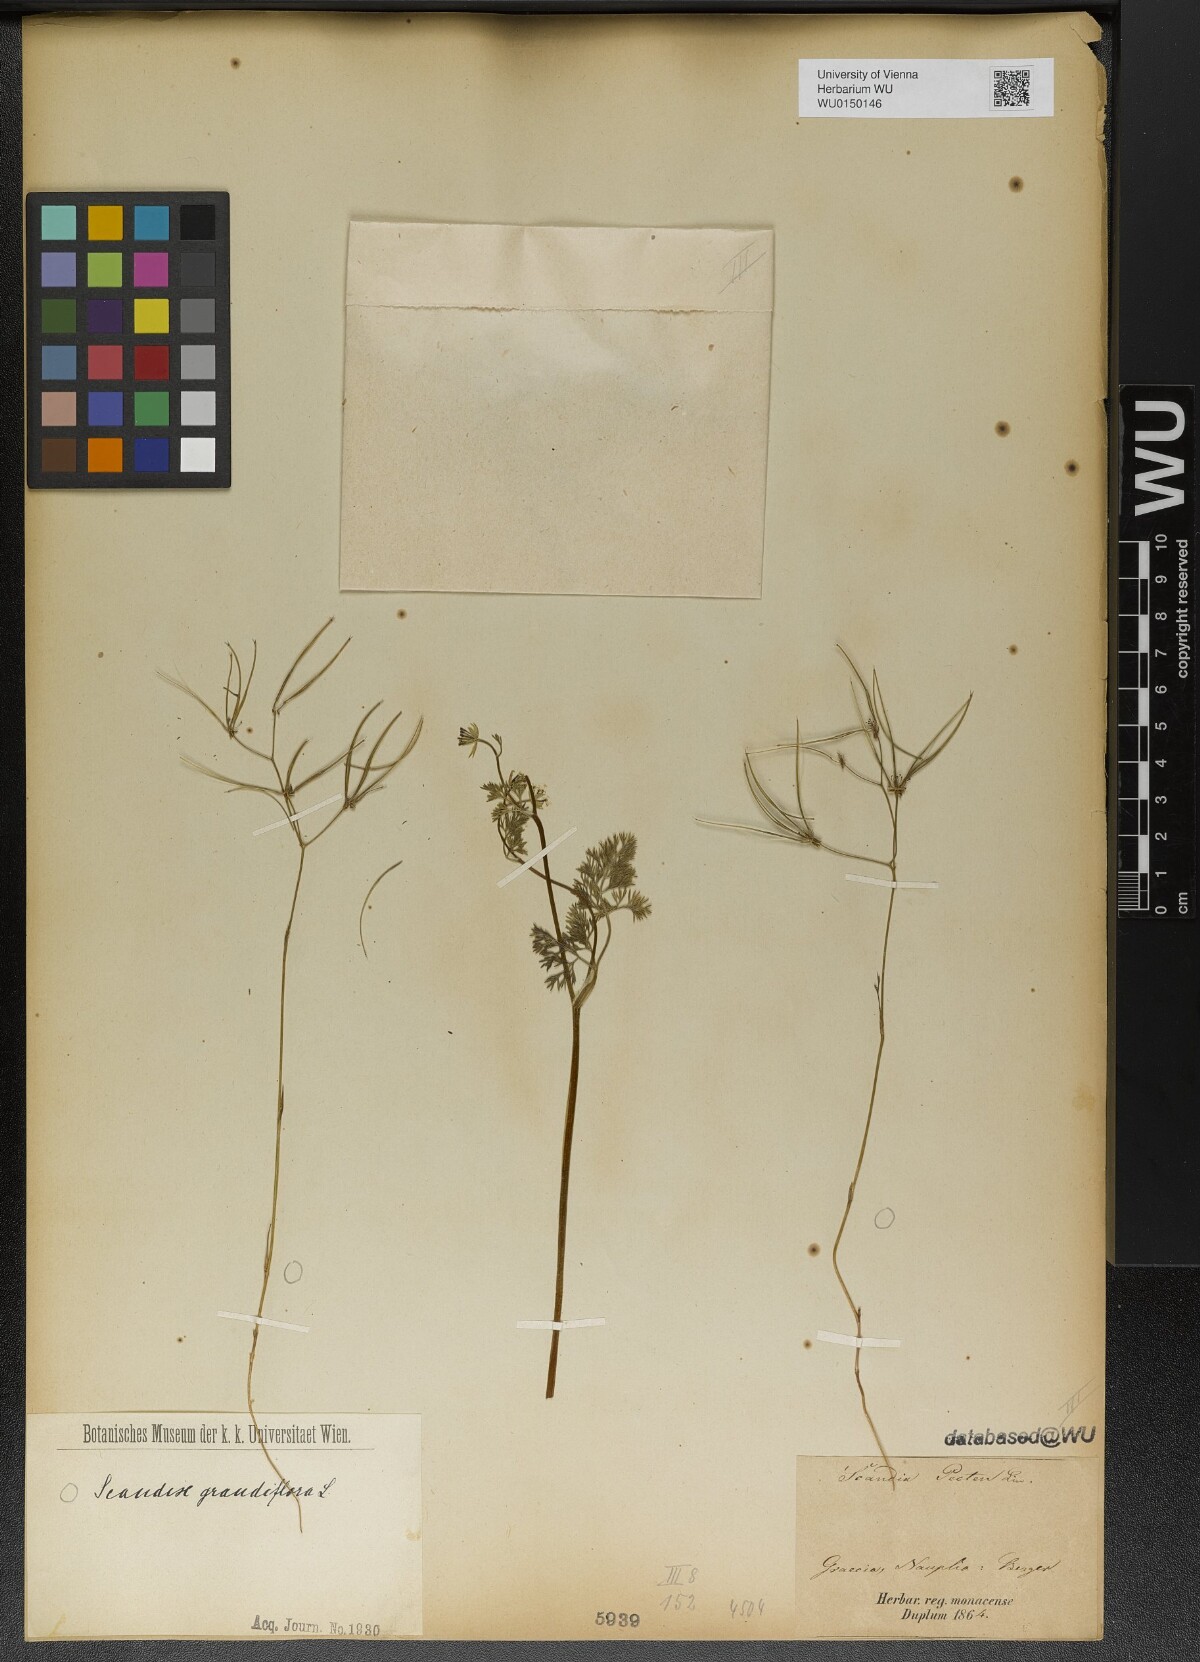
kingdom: Plantae
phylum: Tracheophyta
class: Magnoliopsida
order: Apiales
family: Apiaceae
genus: Scandix
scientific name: Scandix australis
